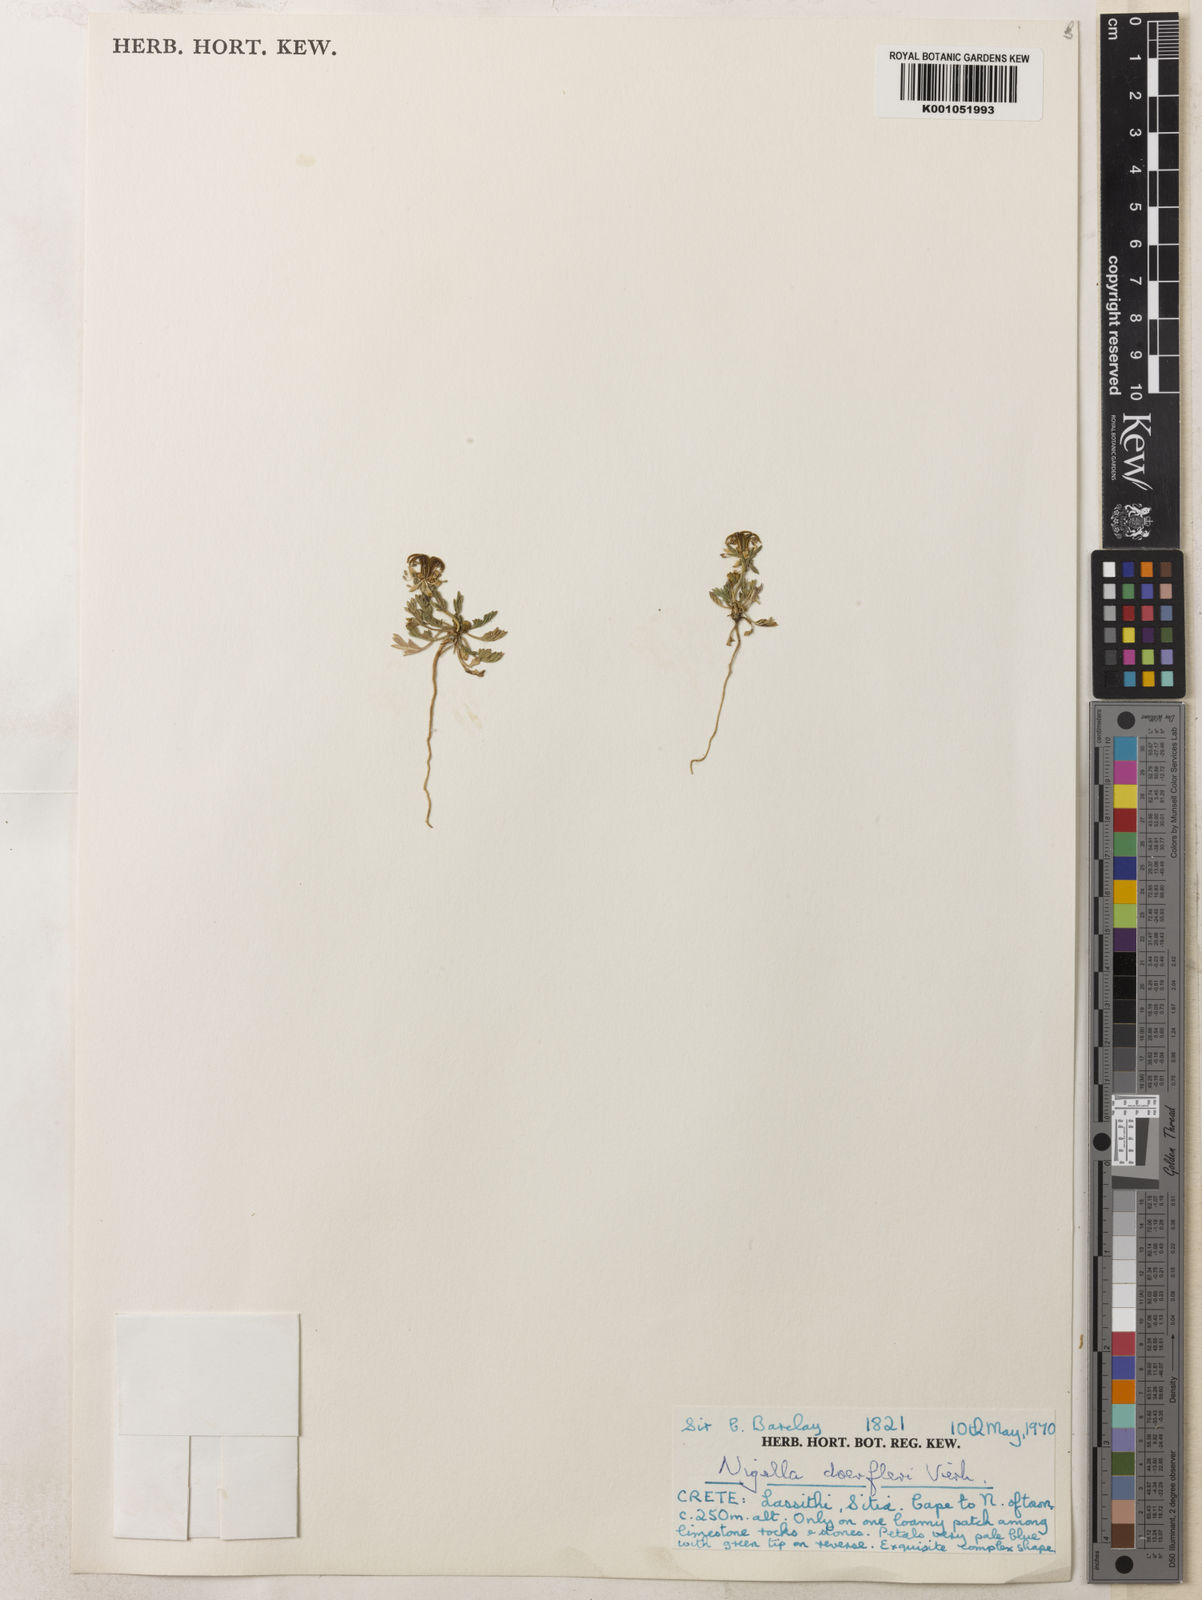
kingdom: Plantae
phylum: Tracheophyta
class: Magnoliopsida
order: Ranunculales
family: Ranunculaceae
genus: Nigella
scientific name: Nigella arvensis
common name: Wild fennel-flower
